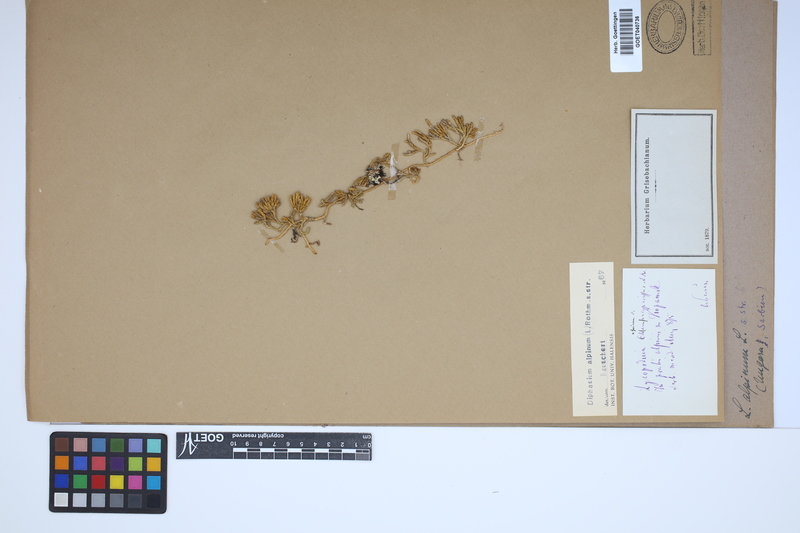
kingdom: Plantae
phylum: Tracheophyta
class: Lycopodiopsida
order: Lycopodiales
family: Lycopodiaceae
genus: Diphasiastrum
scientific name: Diphasiastrum alpinum
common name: Alpine clubmoss
